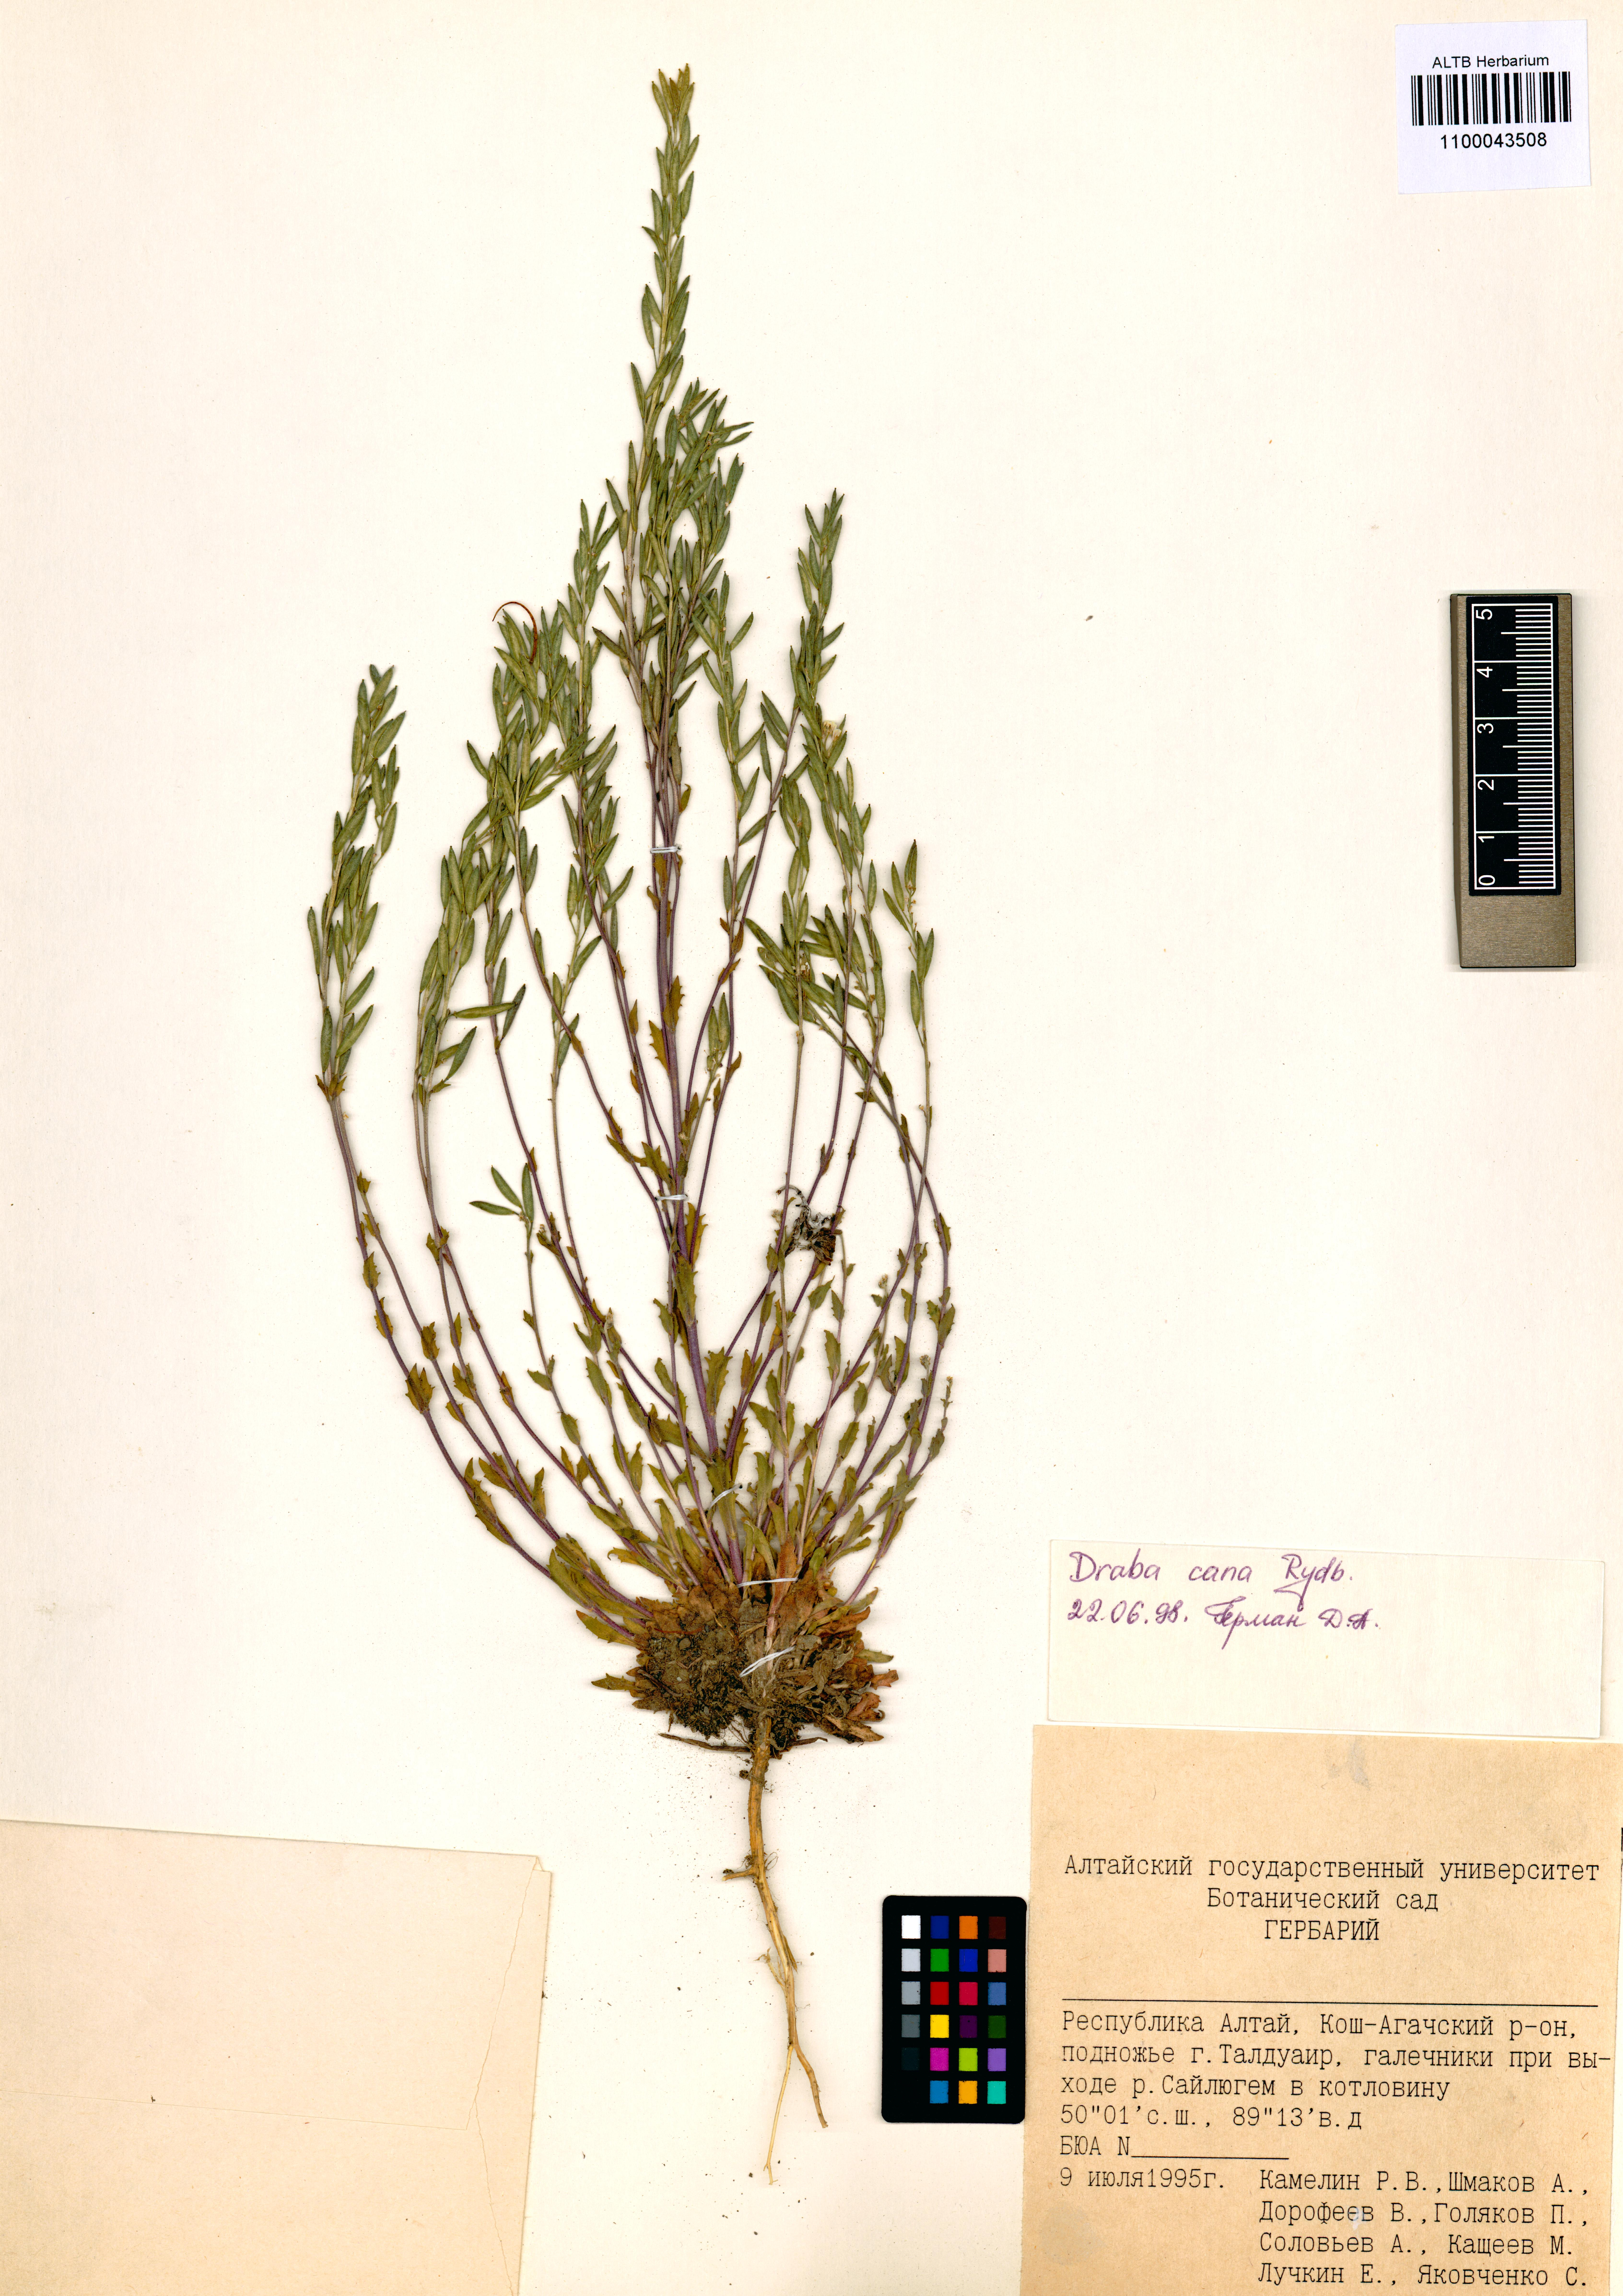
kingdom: Plantae
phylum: Tracheophyta
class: Magnoliopsida
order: Brassicales
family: Brassicaceae
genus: Draba
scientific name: Draba cana
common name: Hoary draba
